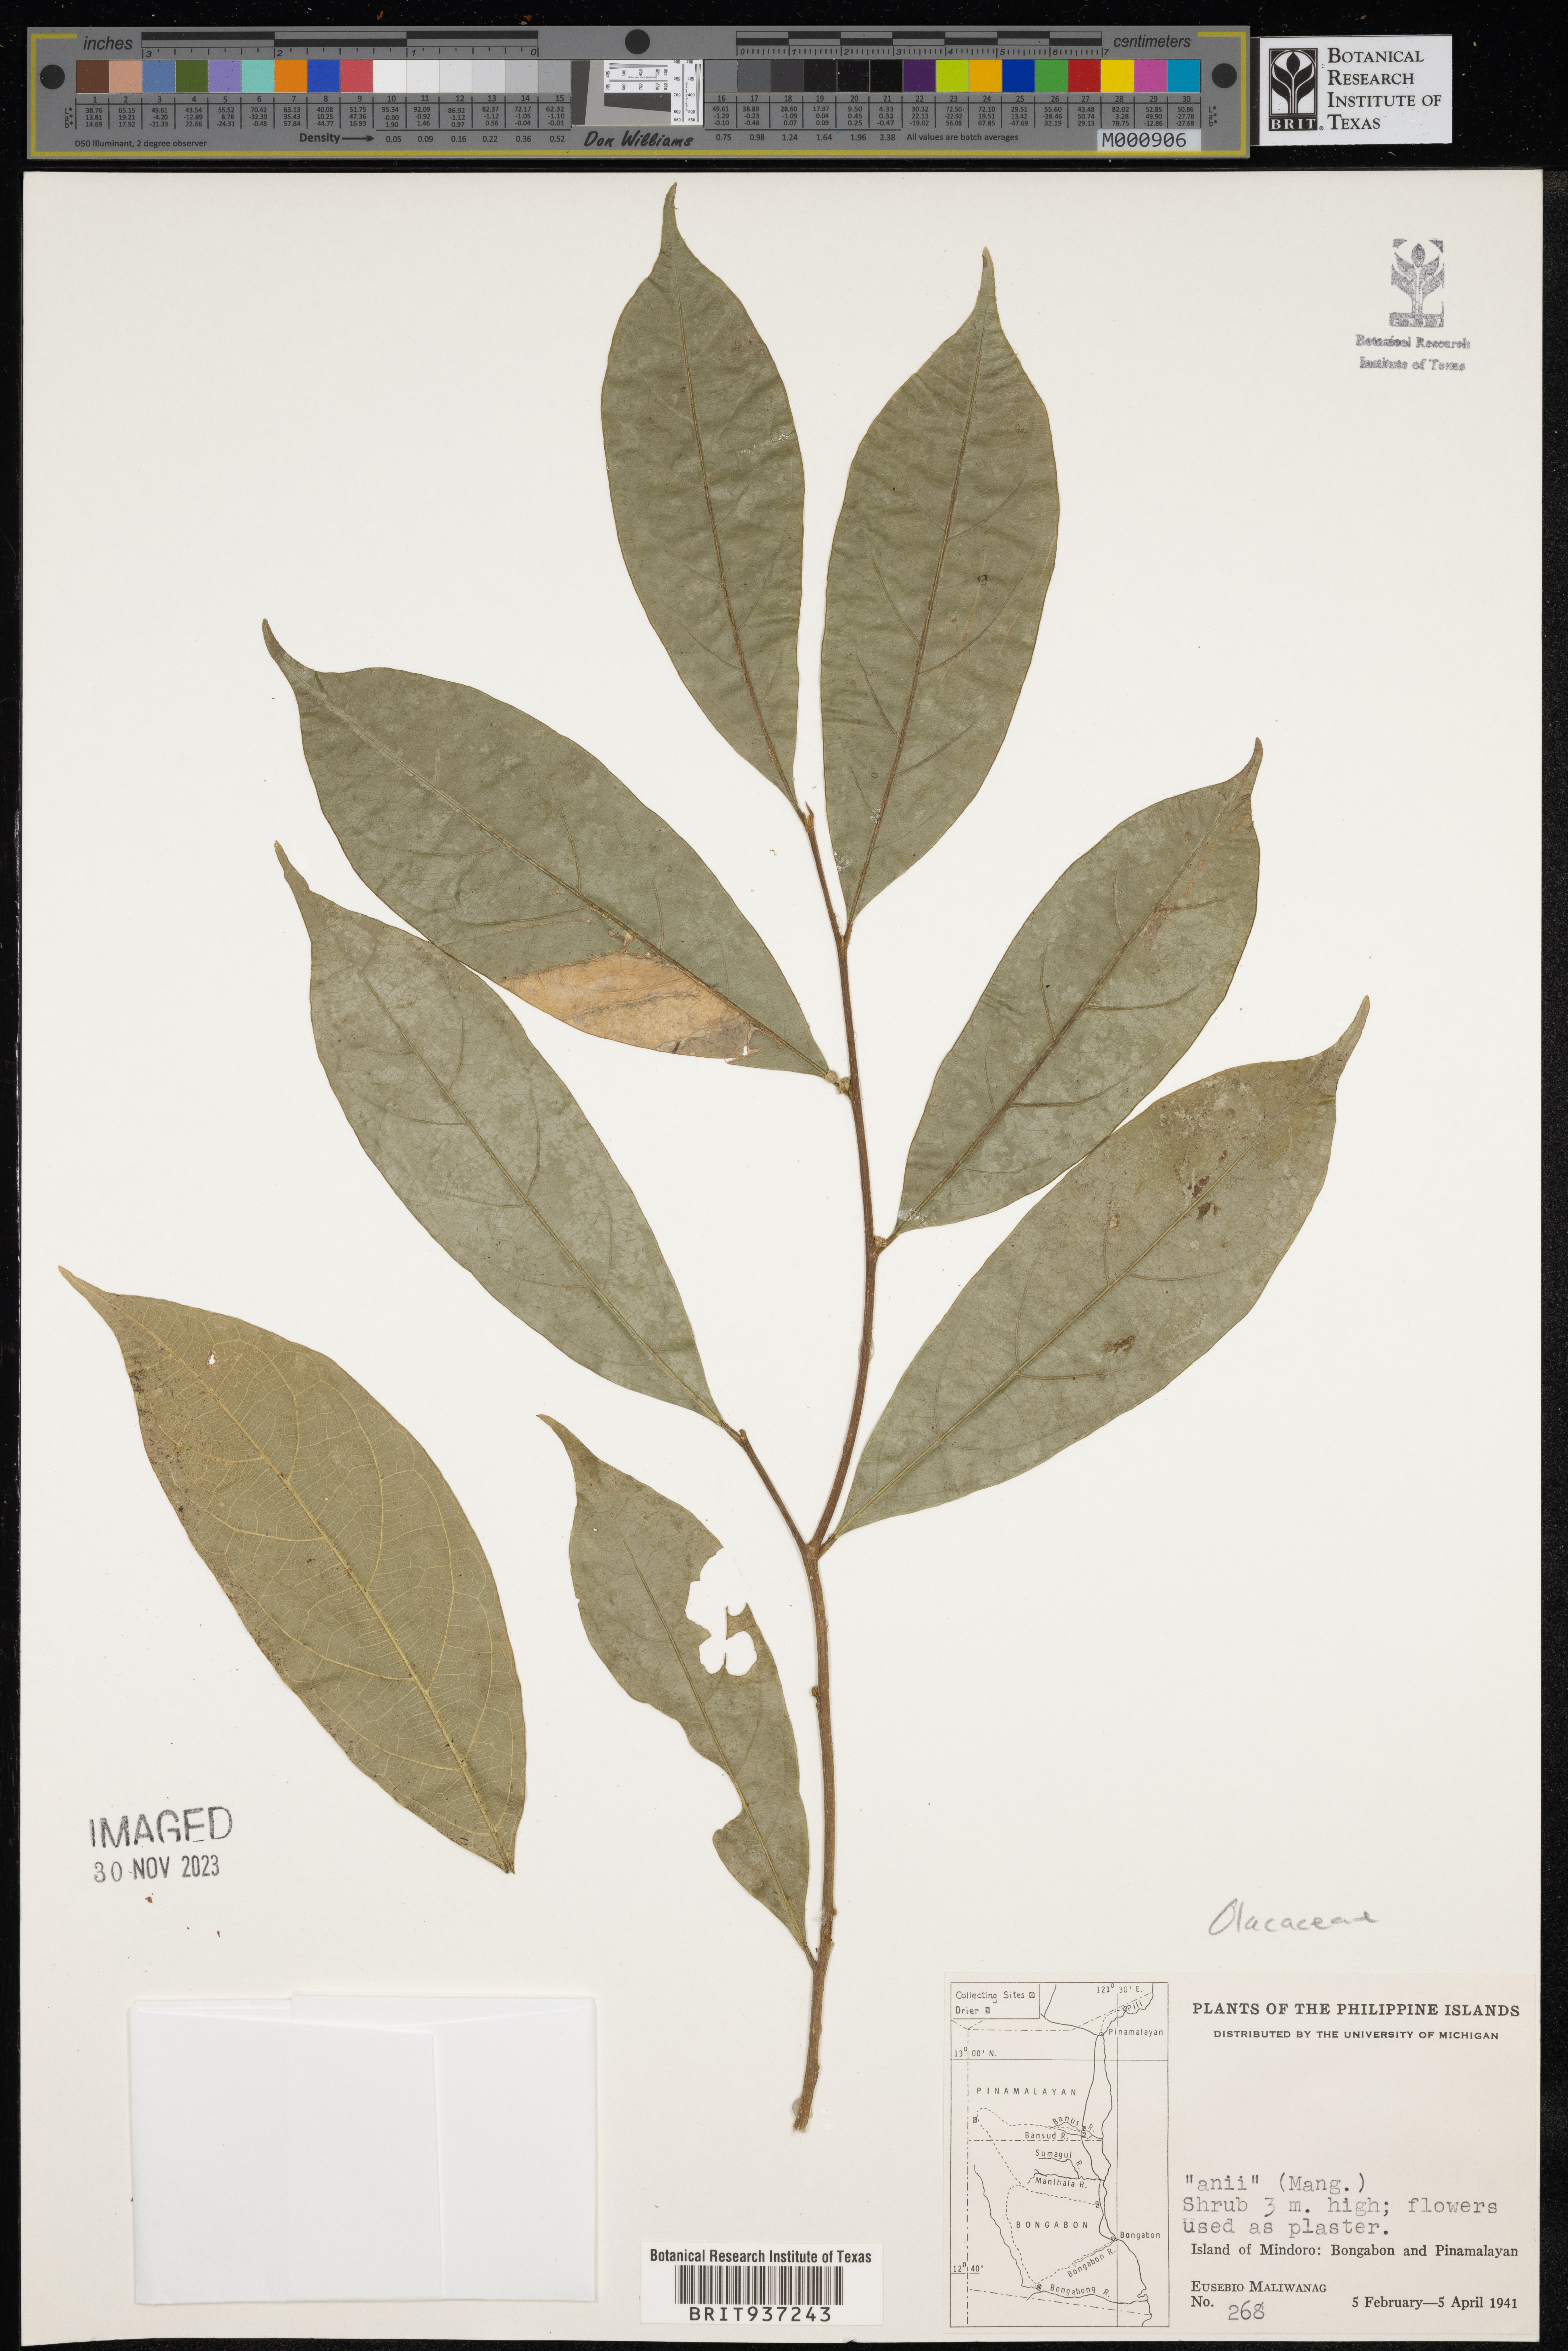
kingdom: Plantae
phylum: Tracheophyta
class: Magnoliopsida
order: Santalales
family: Olacaceae
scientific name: Olacaceae
